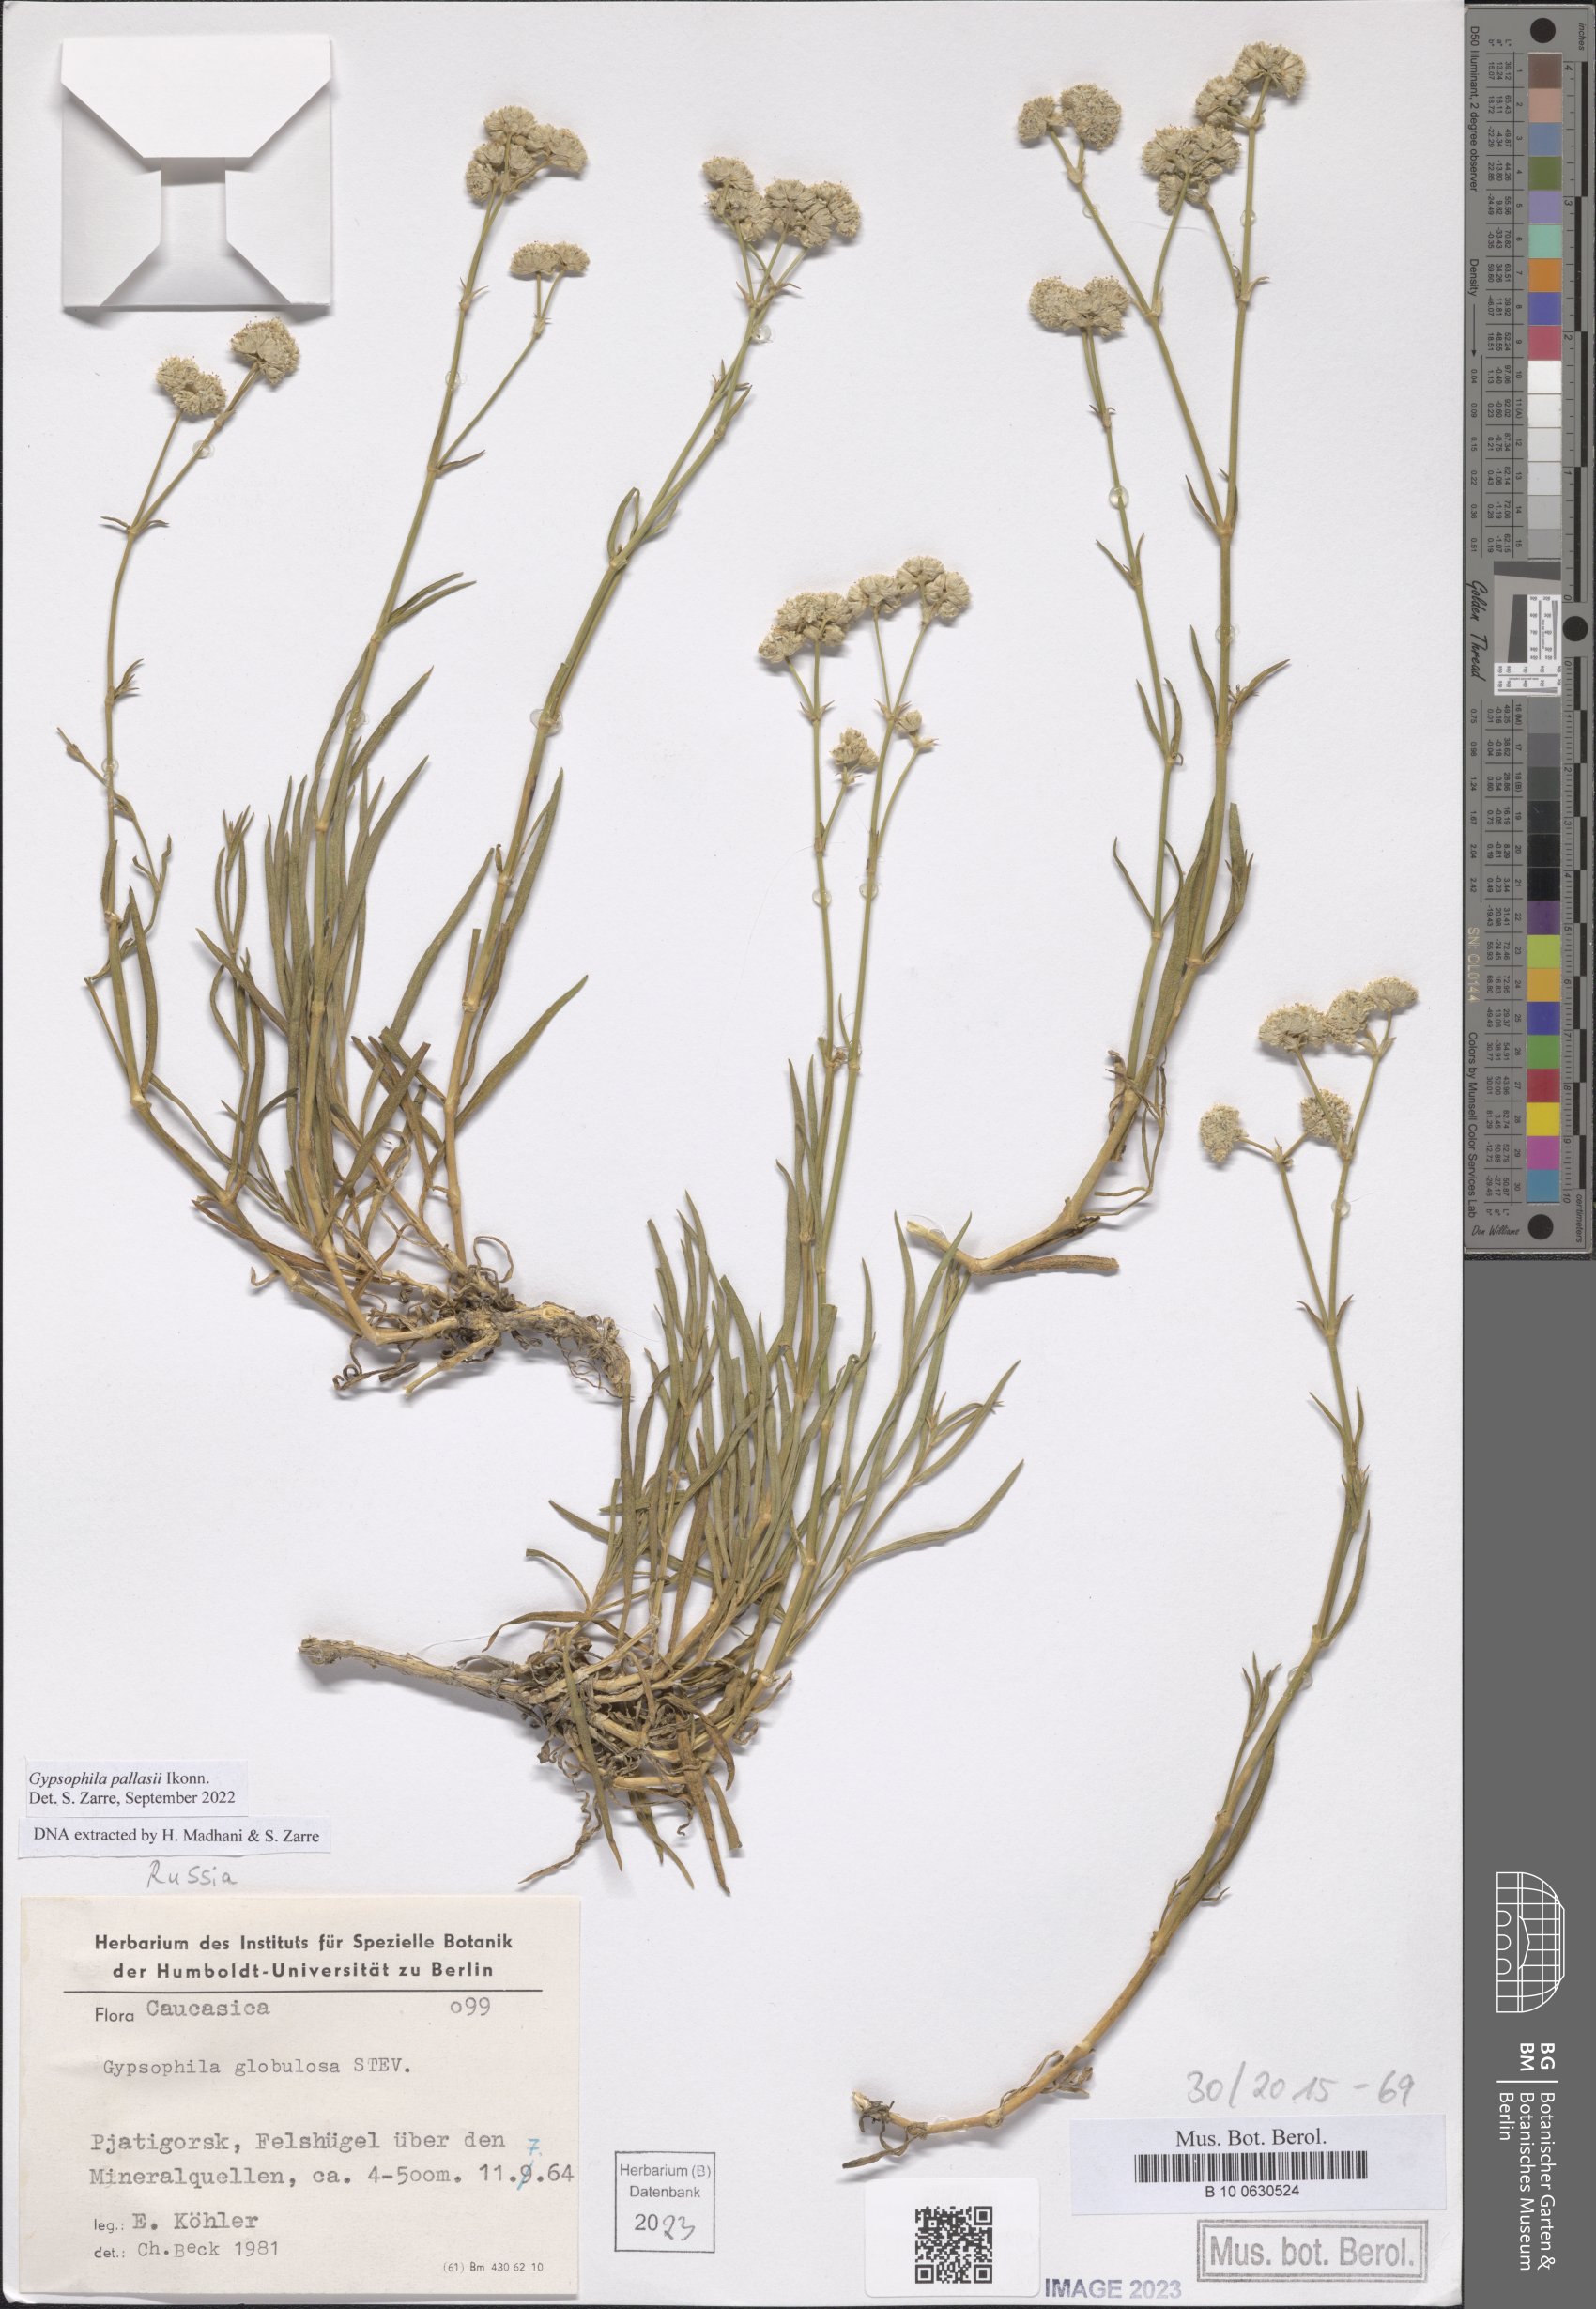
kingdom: Plantae
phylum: Tracheophyta
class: Magnoliopsida
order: Caryophyllales
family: Caryophyllaceae
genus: Gypsophila
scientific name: Gypsophila pallasii
